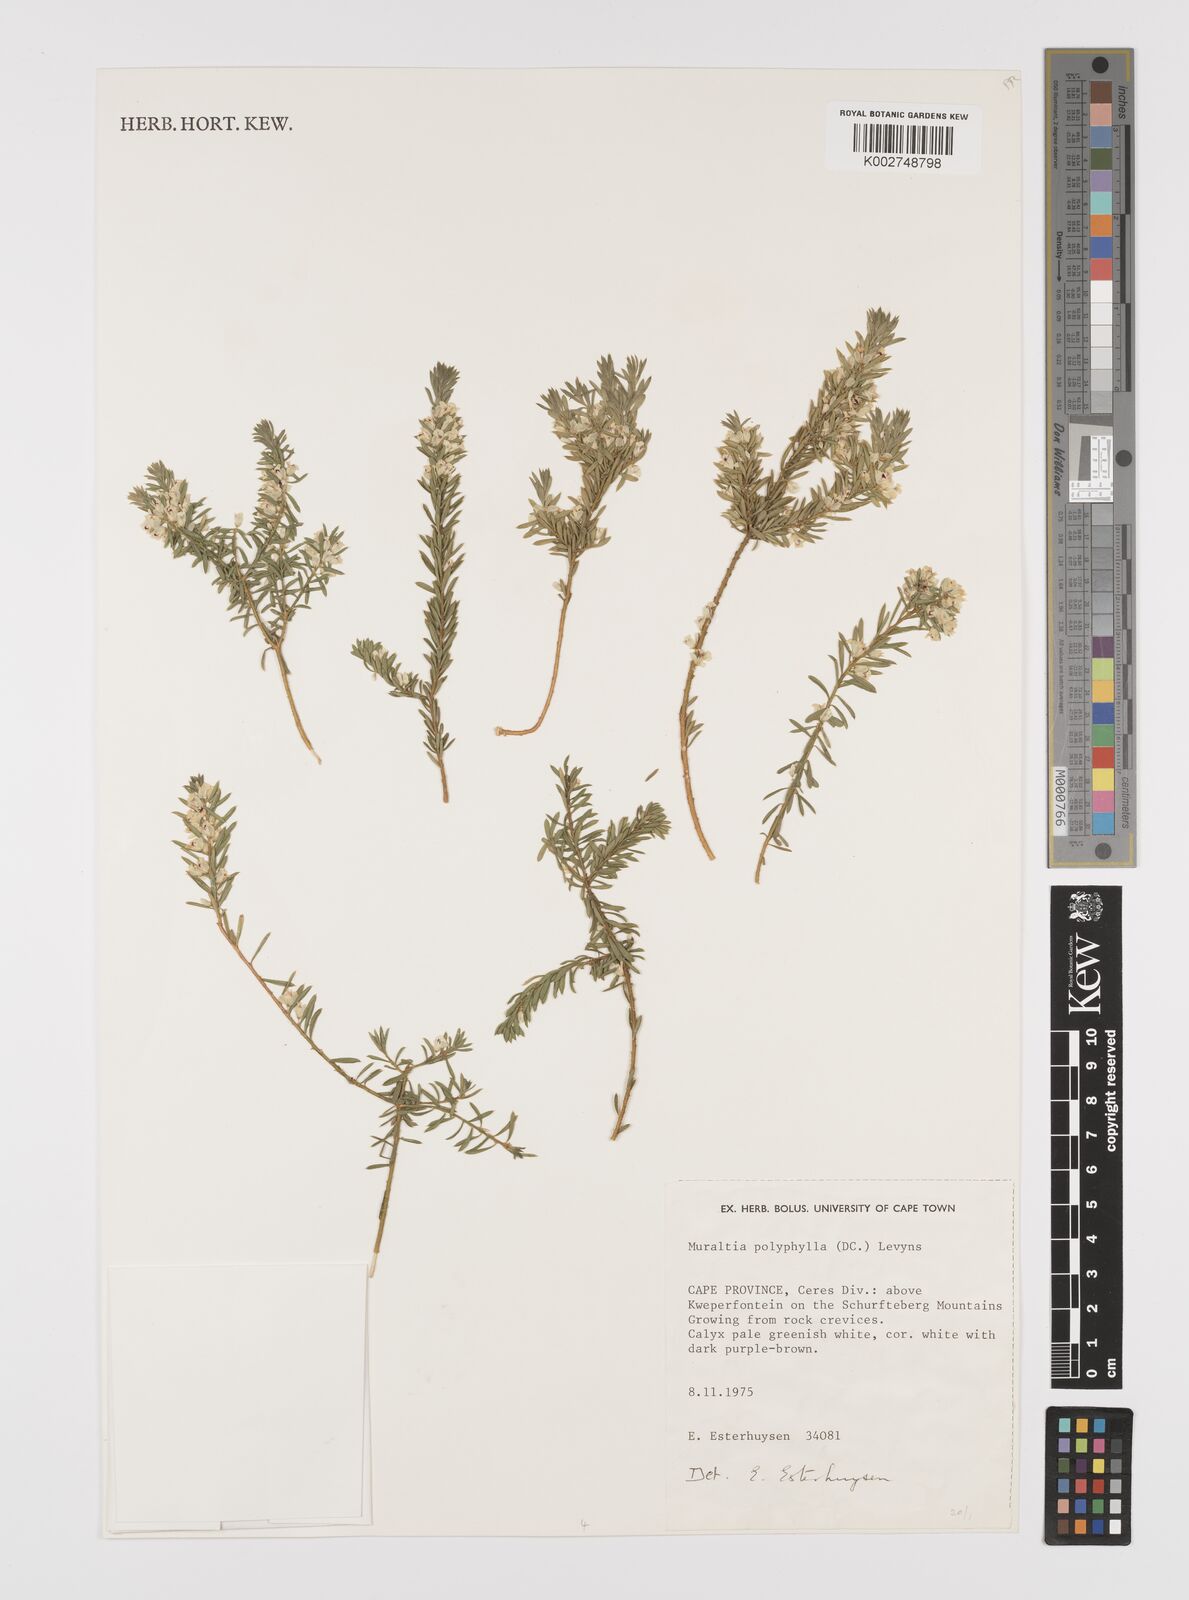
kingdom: Plantae
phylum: Tracheophyta
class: Magnoliopsida
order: Fabales
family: Polygalaceae
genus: Muraltia
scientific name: Muraltia polyphylla
